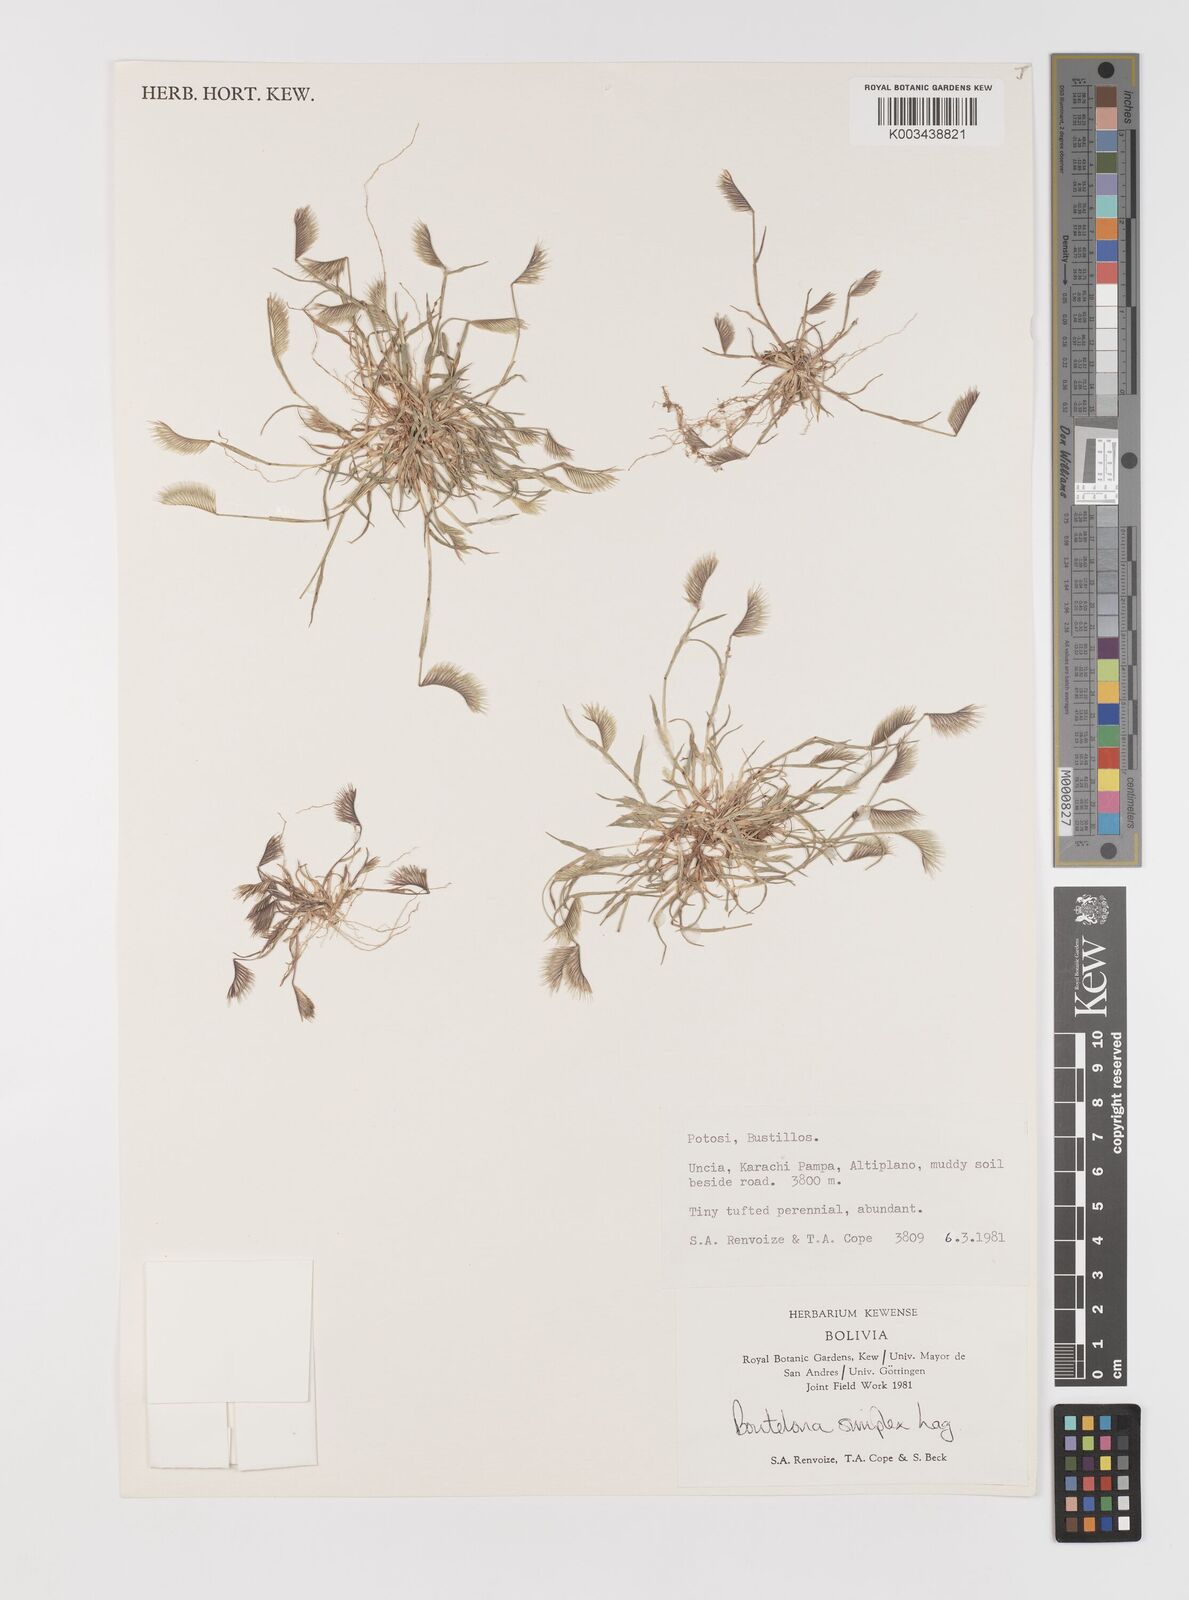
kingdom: Plantae
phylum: Tracheophyta
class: Liliopsida
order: Poales
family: Poaceae
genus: Bouteloua
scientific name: Bouteloua simplex
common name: Mat grama
